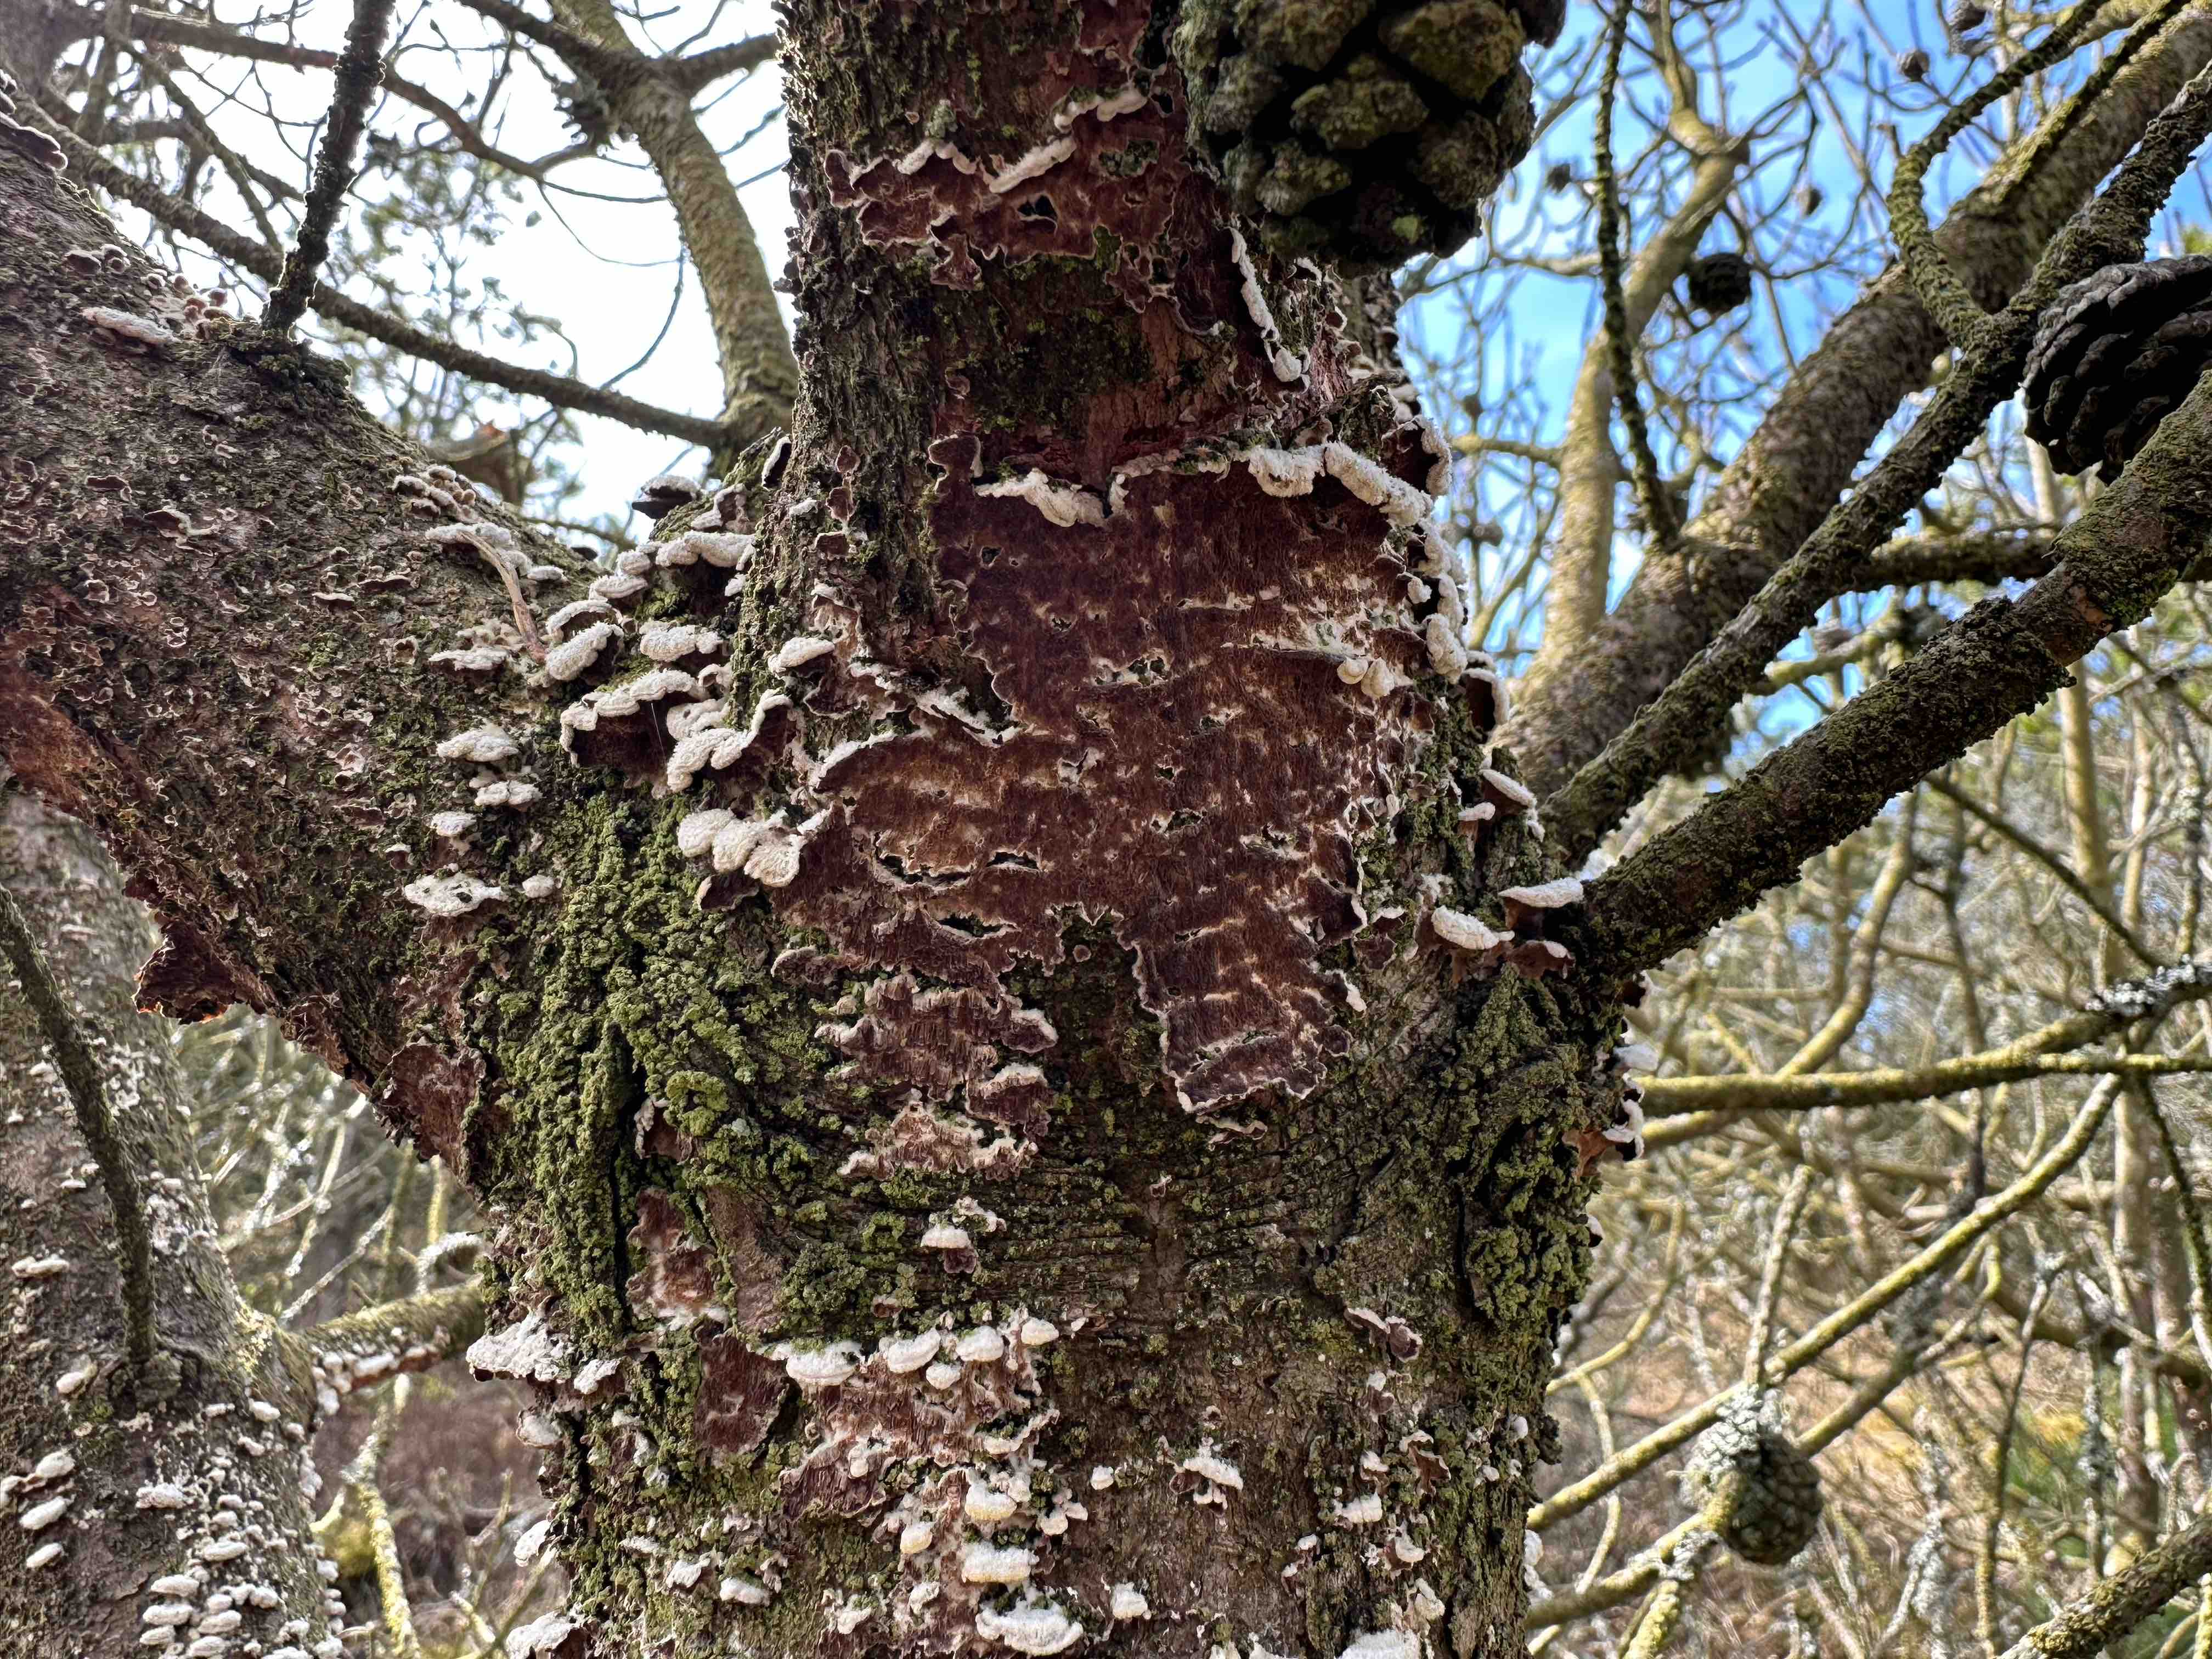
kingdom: Fungi
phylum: Basidiomycota
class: Agaricomycetes
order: Hymenochaetales
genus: Trichaptum
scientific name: Trichaptum fuscoviolaceum
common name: tandet violporesvamp
